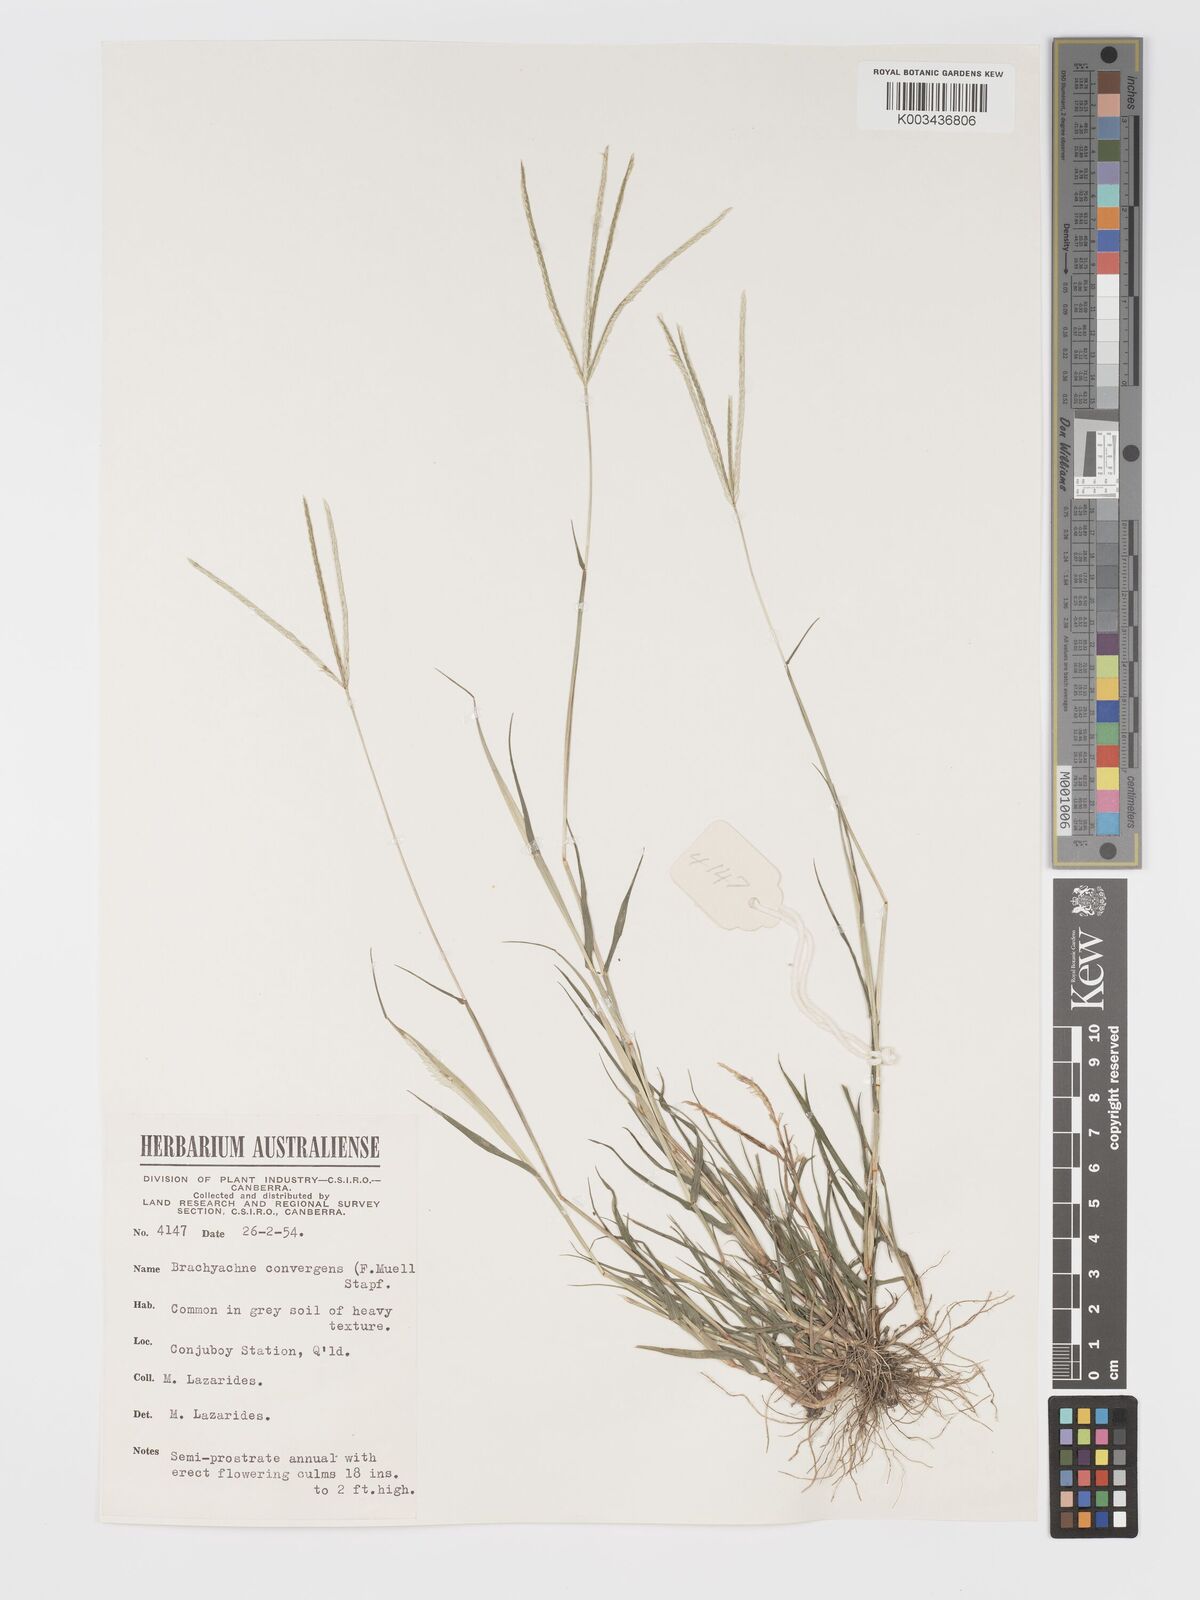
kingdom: Plantae
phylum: Tracheophyta
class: Liliopsida
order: Poales
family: Poaceae
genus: Cynodon
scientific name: Cynodon convergens
